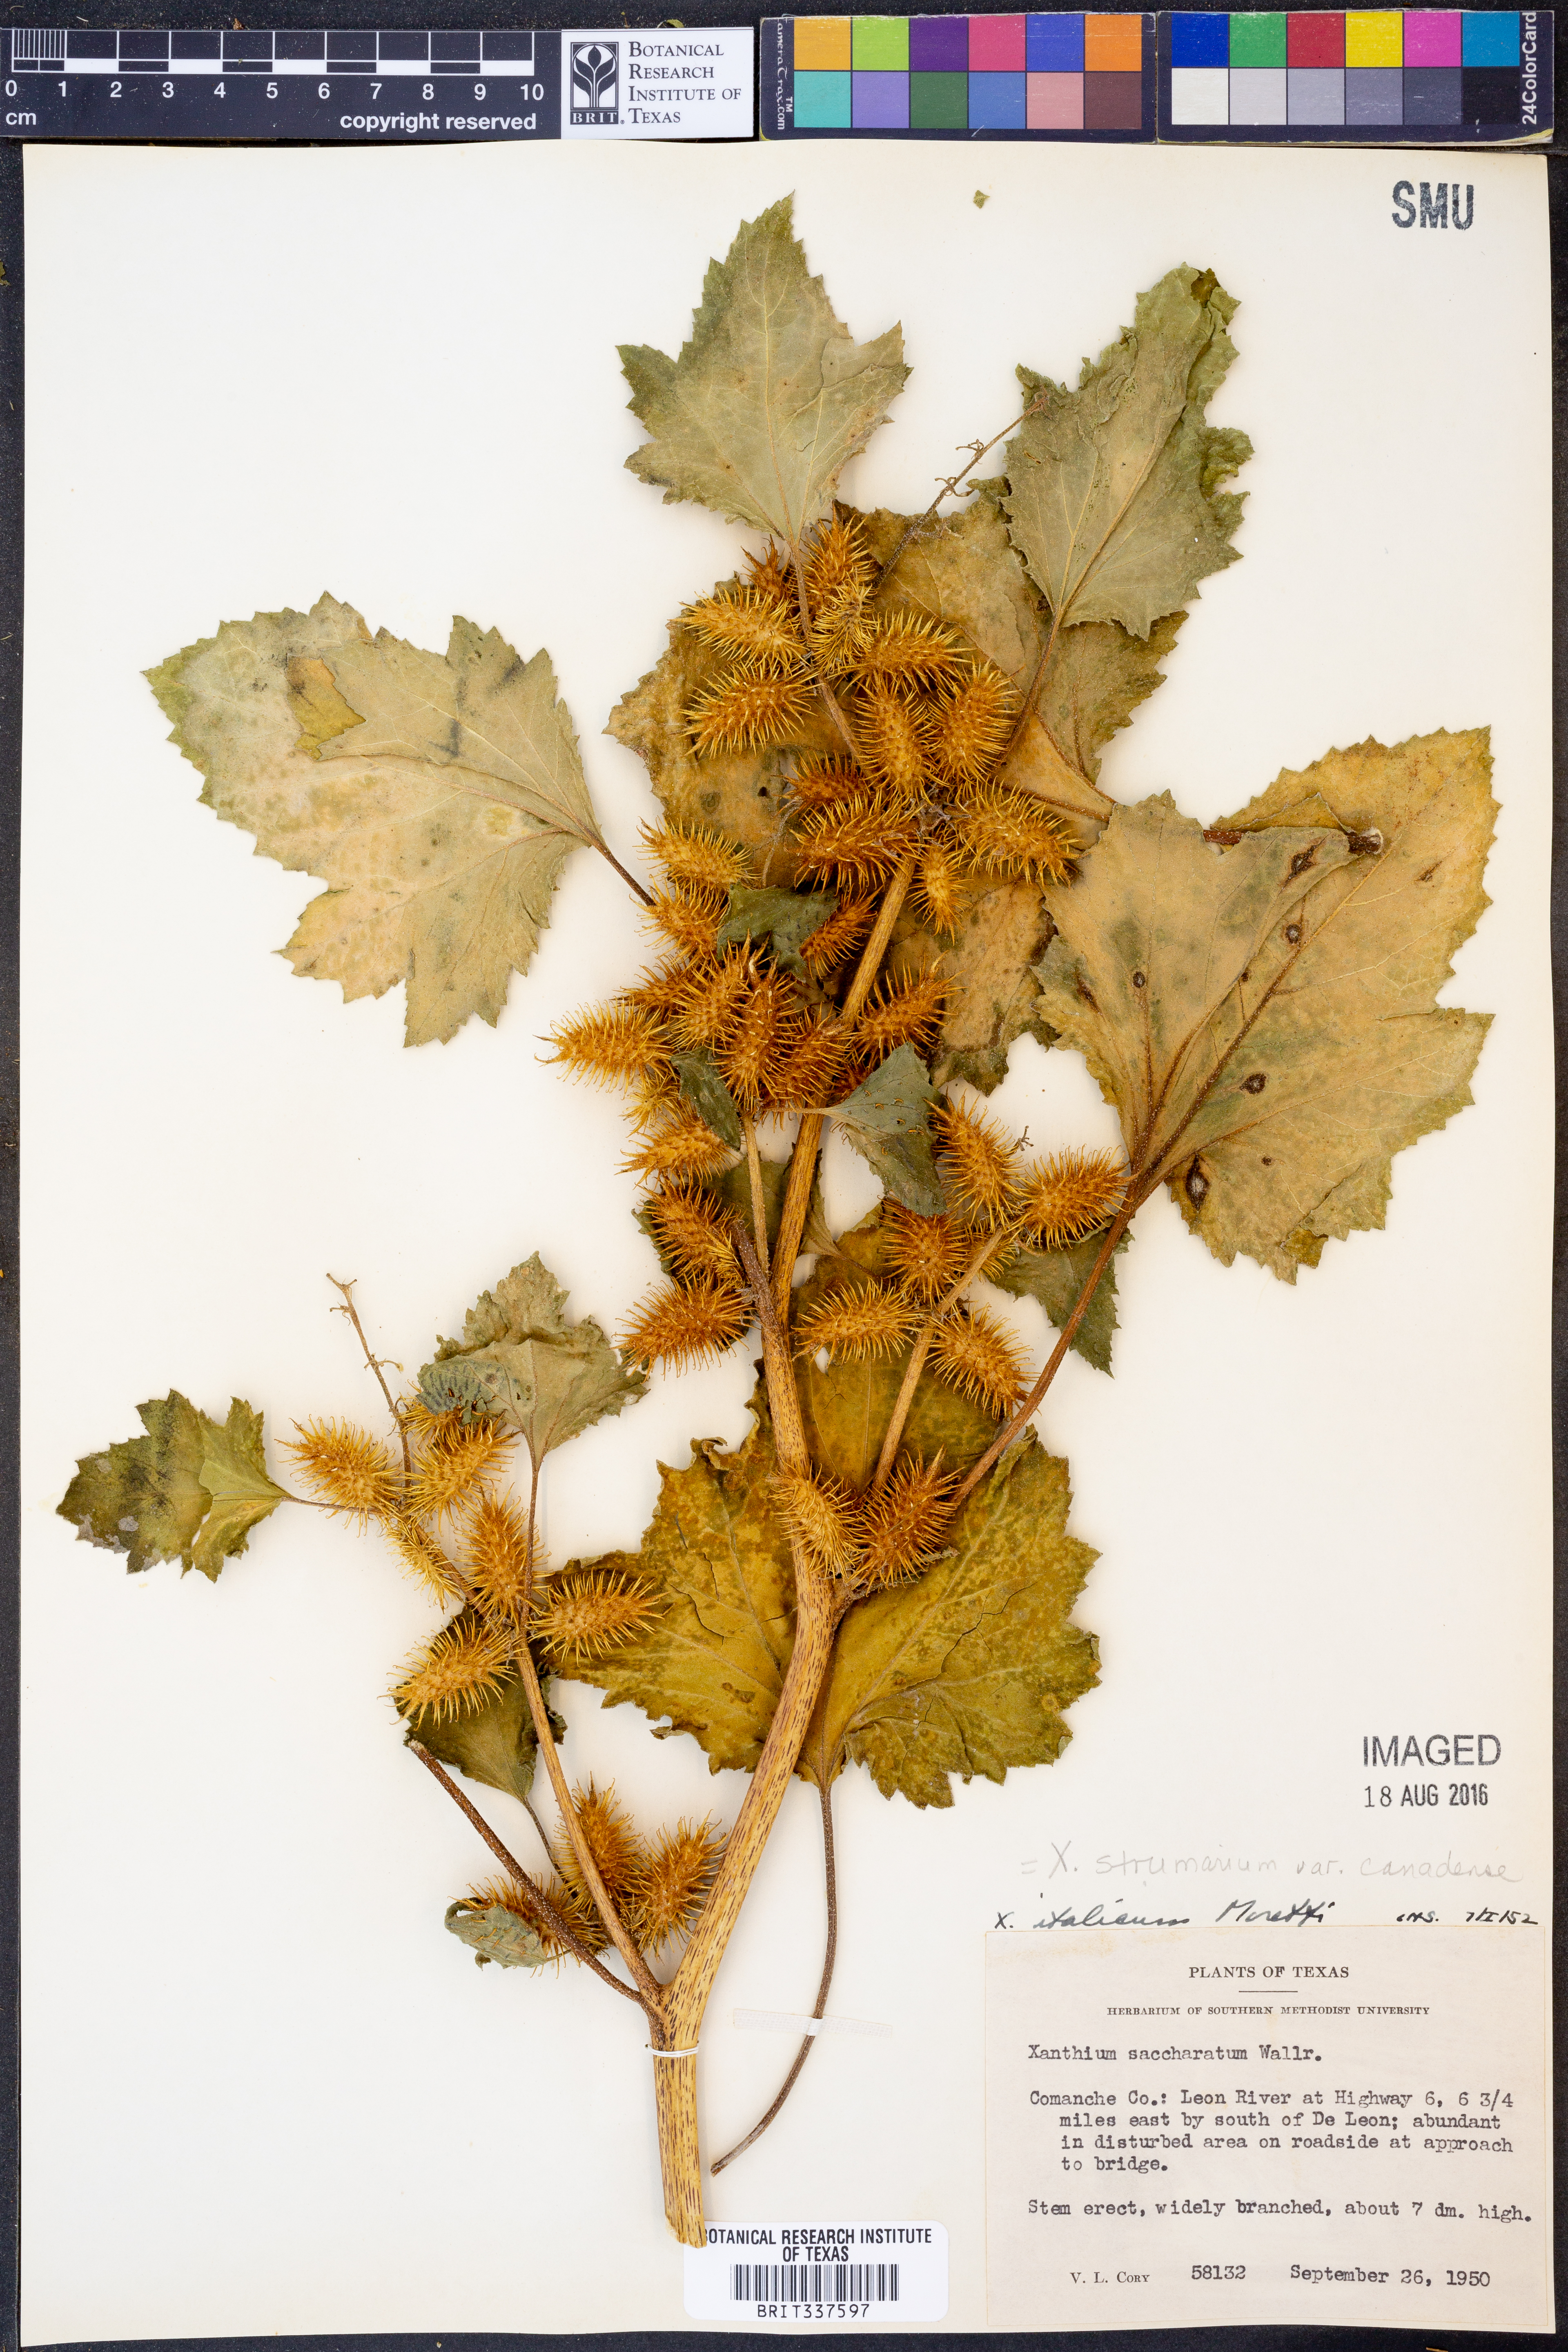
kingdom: Plantae
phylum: Tracheophyta
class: Magnoliopsida
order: Asterales
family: Asteraceae
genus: Xanthium
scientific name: Xanthium orientale
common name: Californian burr
